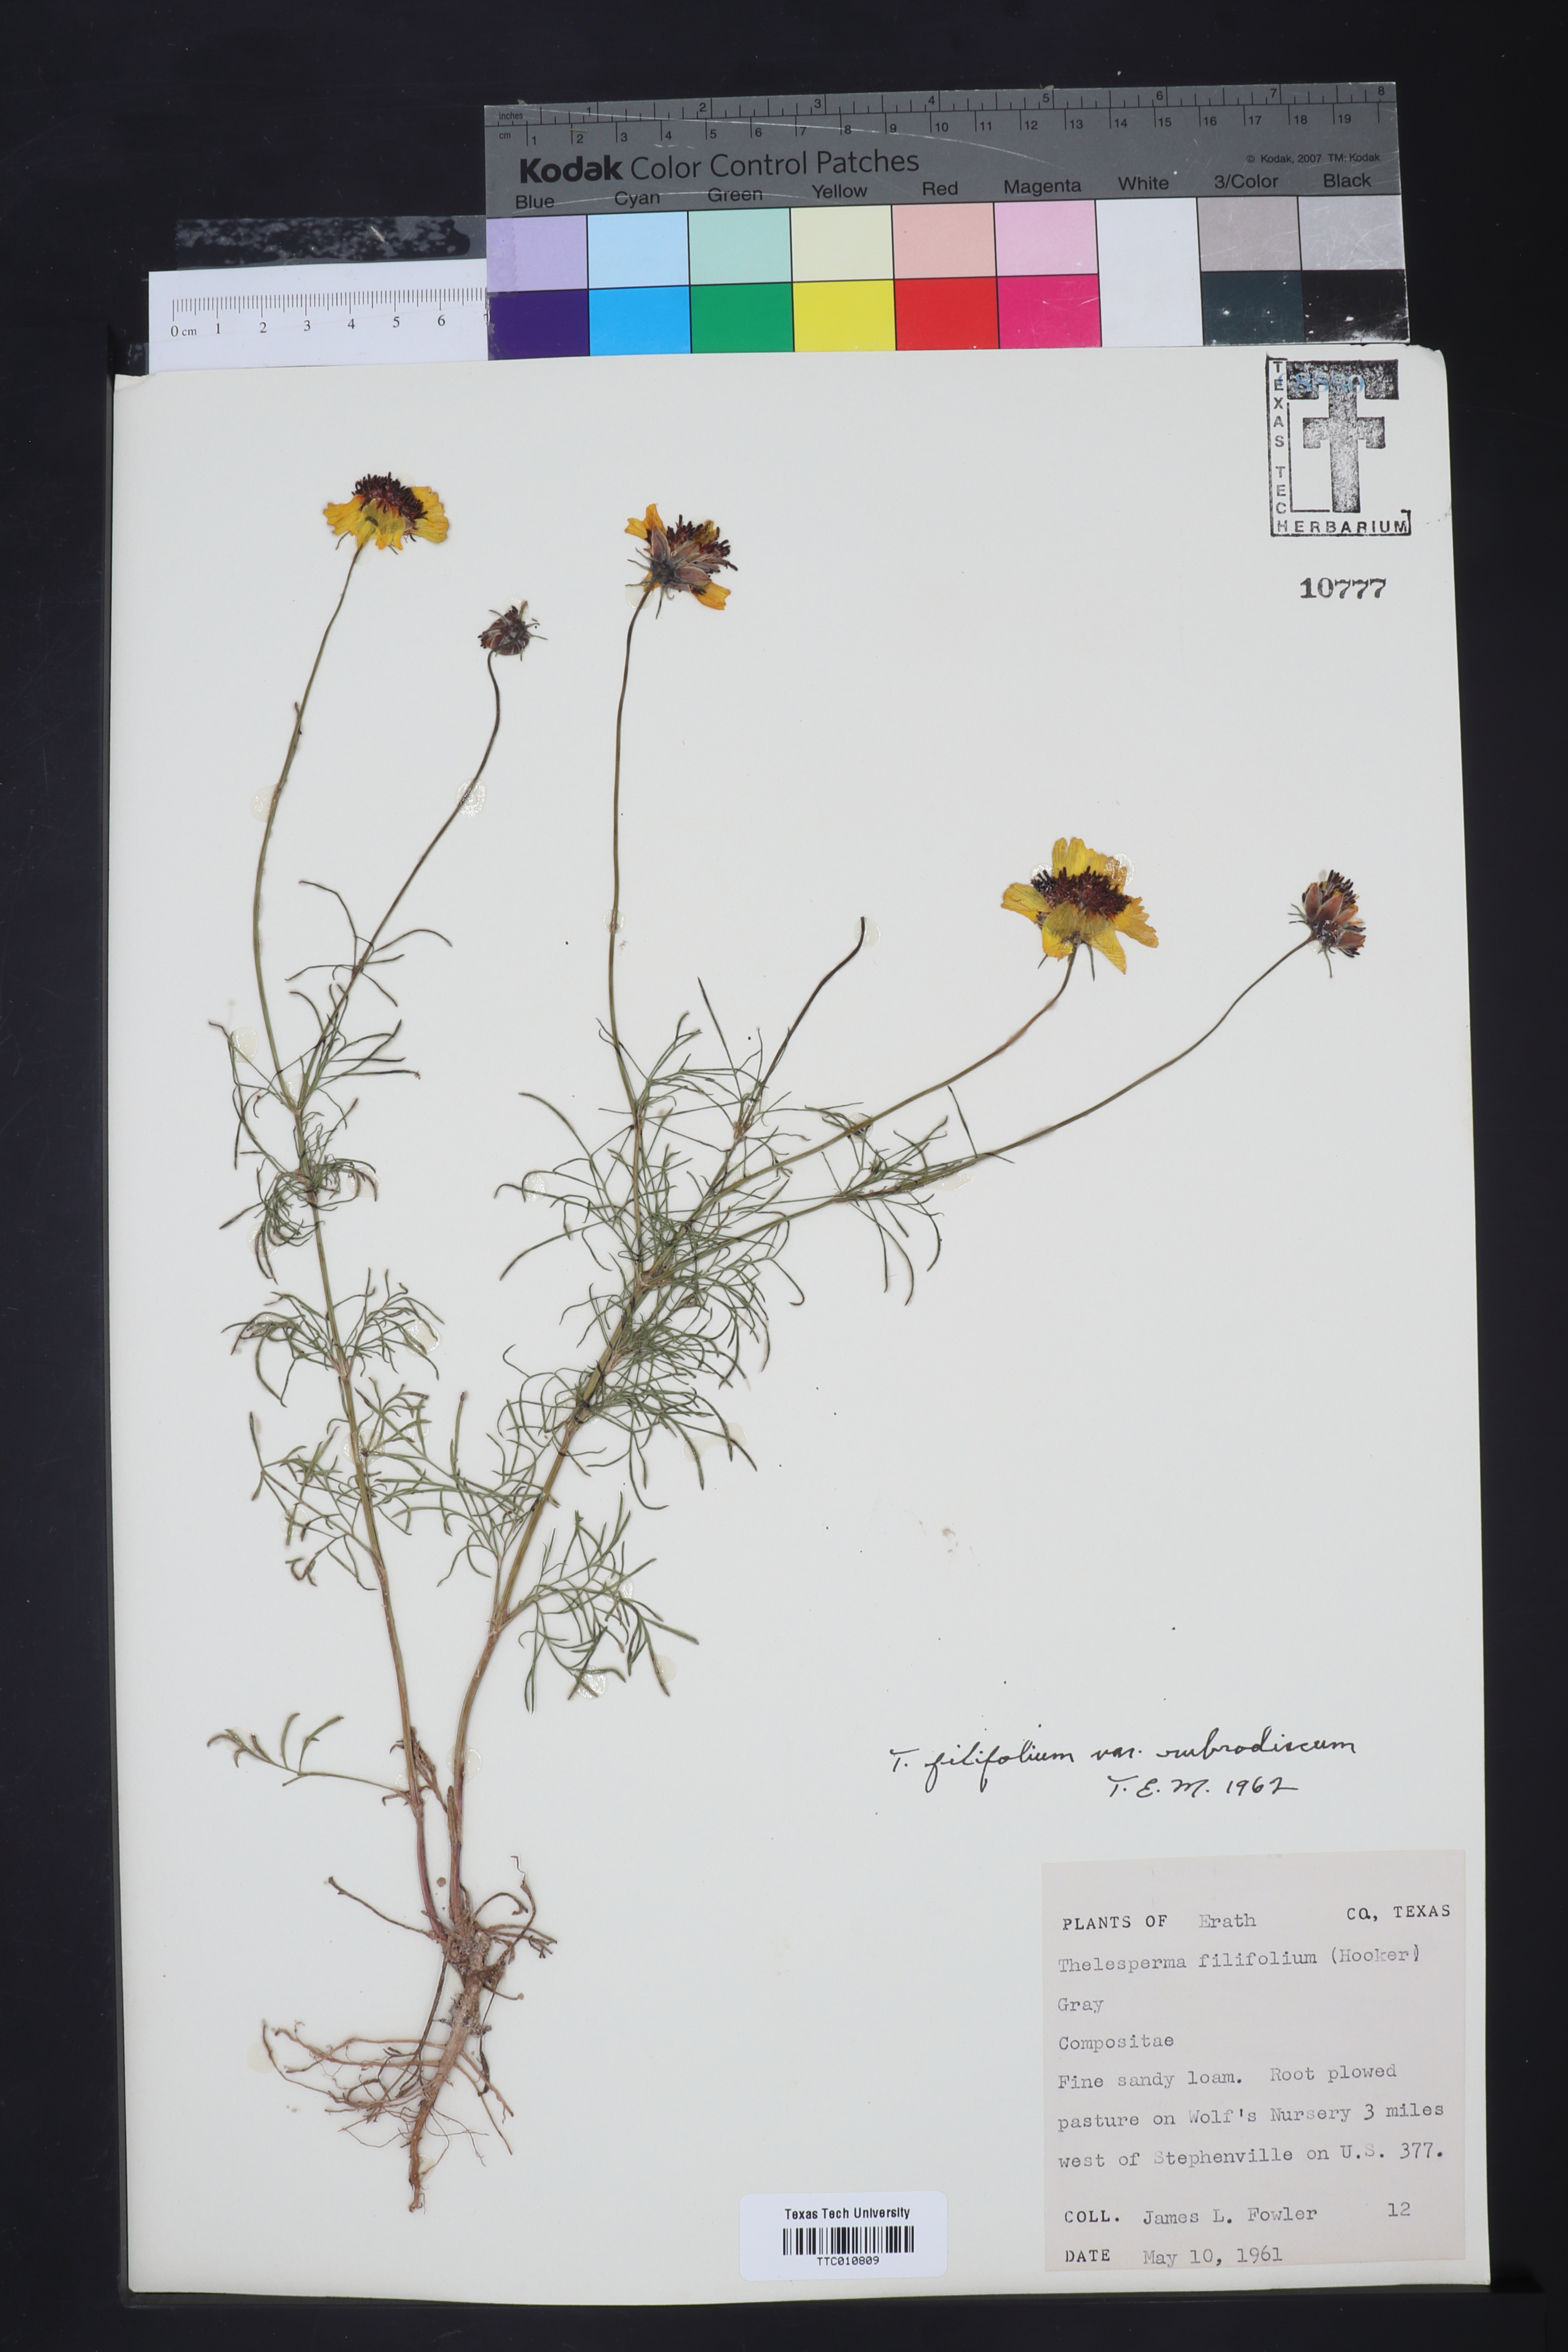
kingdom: Plantae
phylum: Tracheophyta
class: Magnoliopsida
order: Asterales
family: Asteraceae
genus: Thelesperma
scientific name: Thelesperma filifolium
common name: Stiff greenthread
